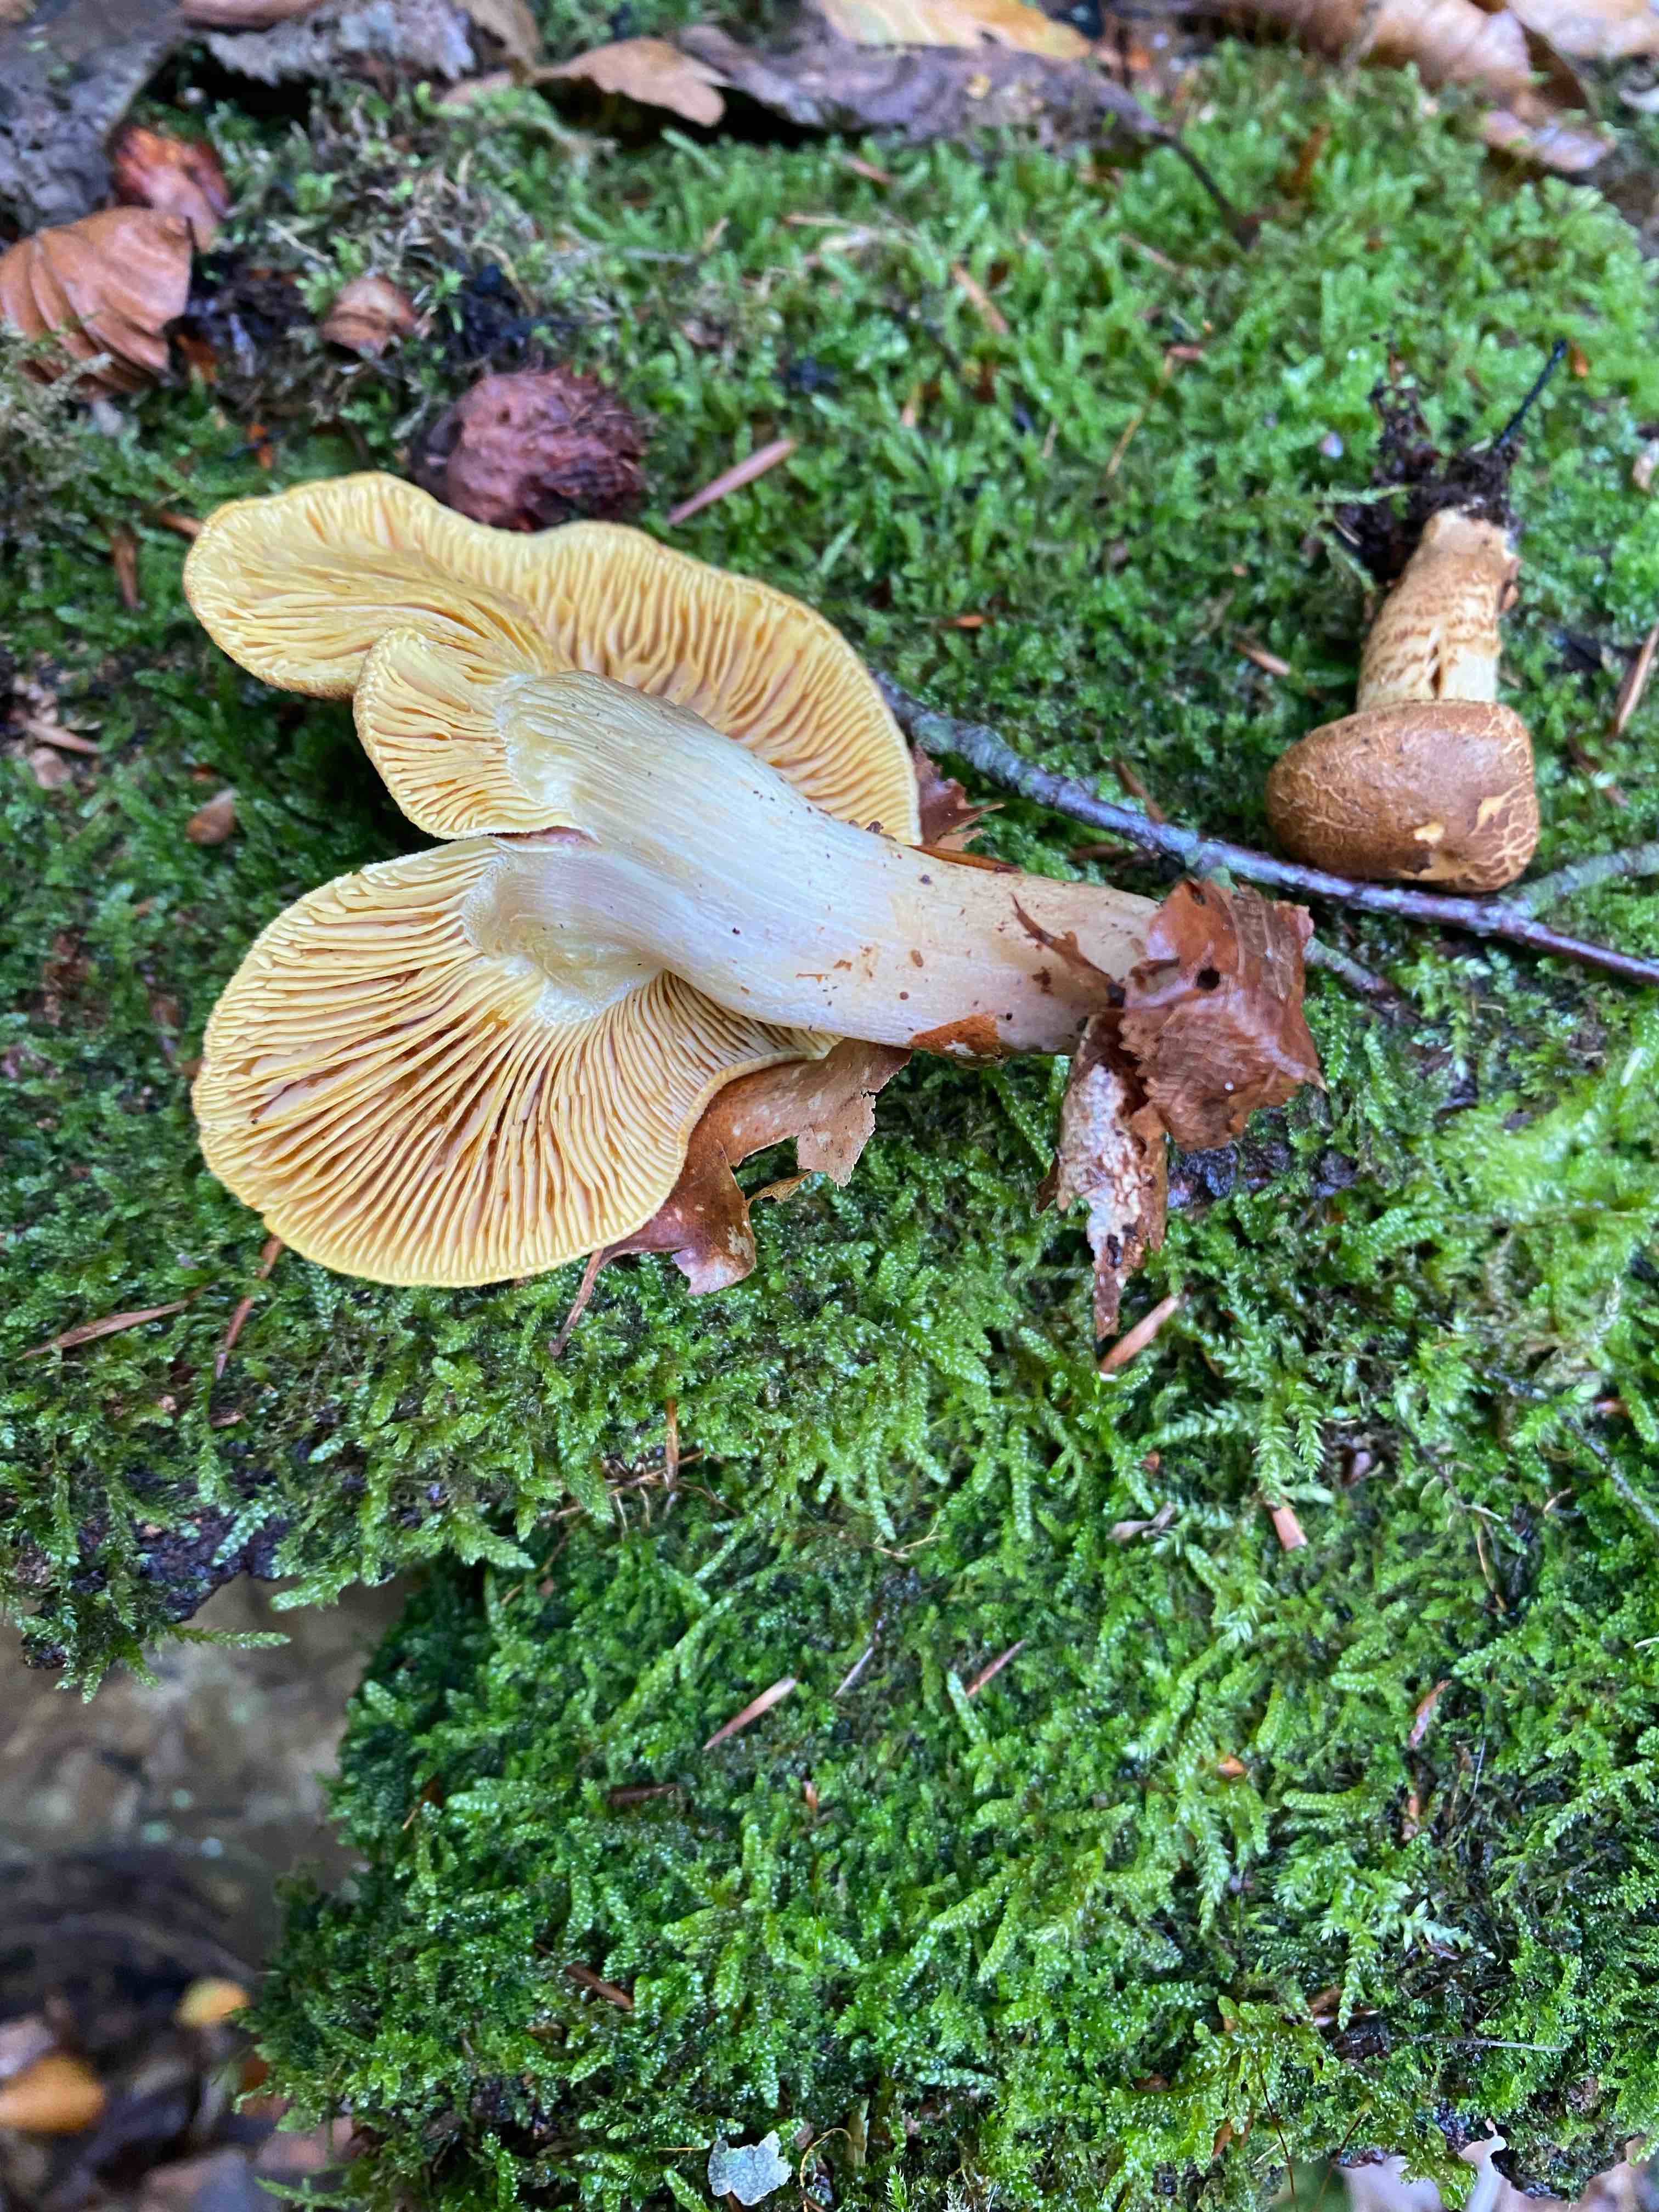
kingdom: Fungi
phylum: Basidiomycota
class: Agaricomycetes
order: Agaricales
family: Tricholomataceae
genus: Tricholomopsis
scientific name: Tricholomopsis rutilans
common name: purpur-væbnerhat
